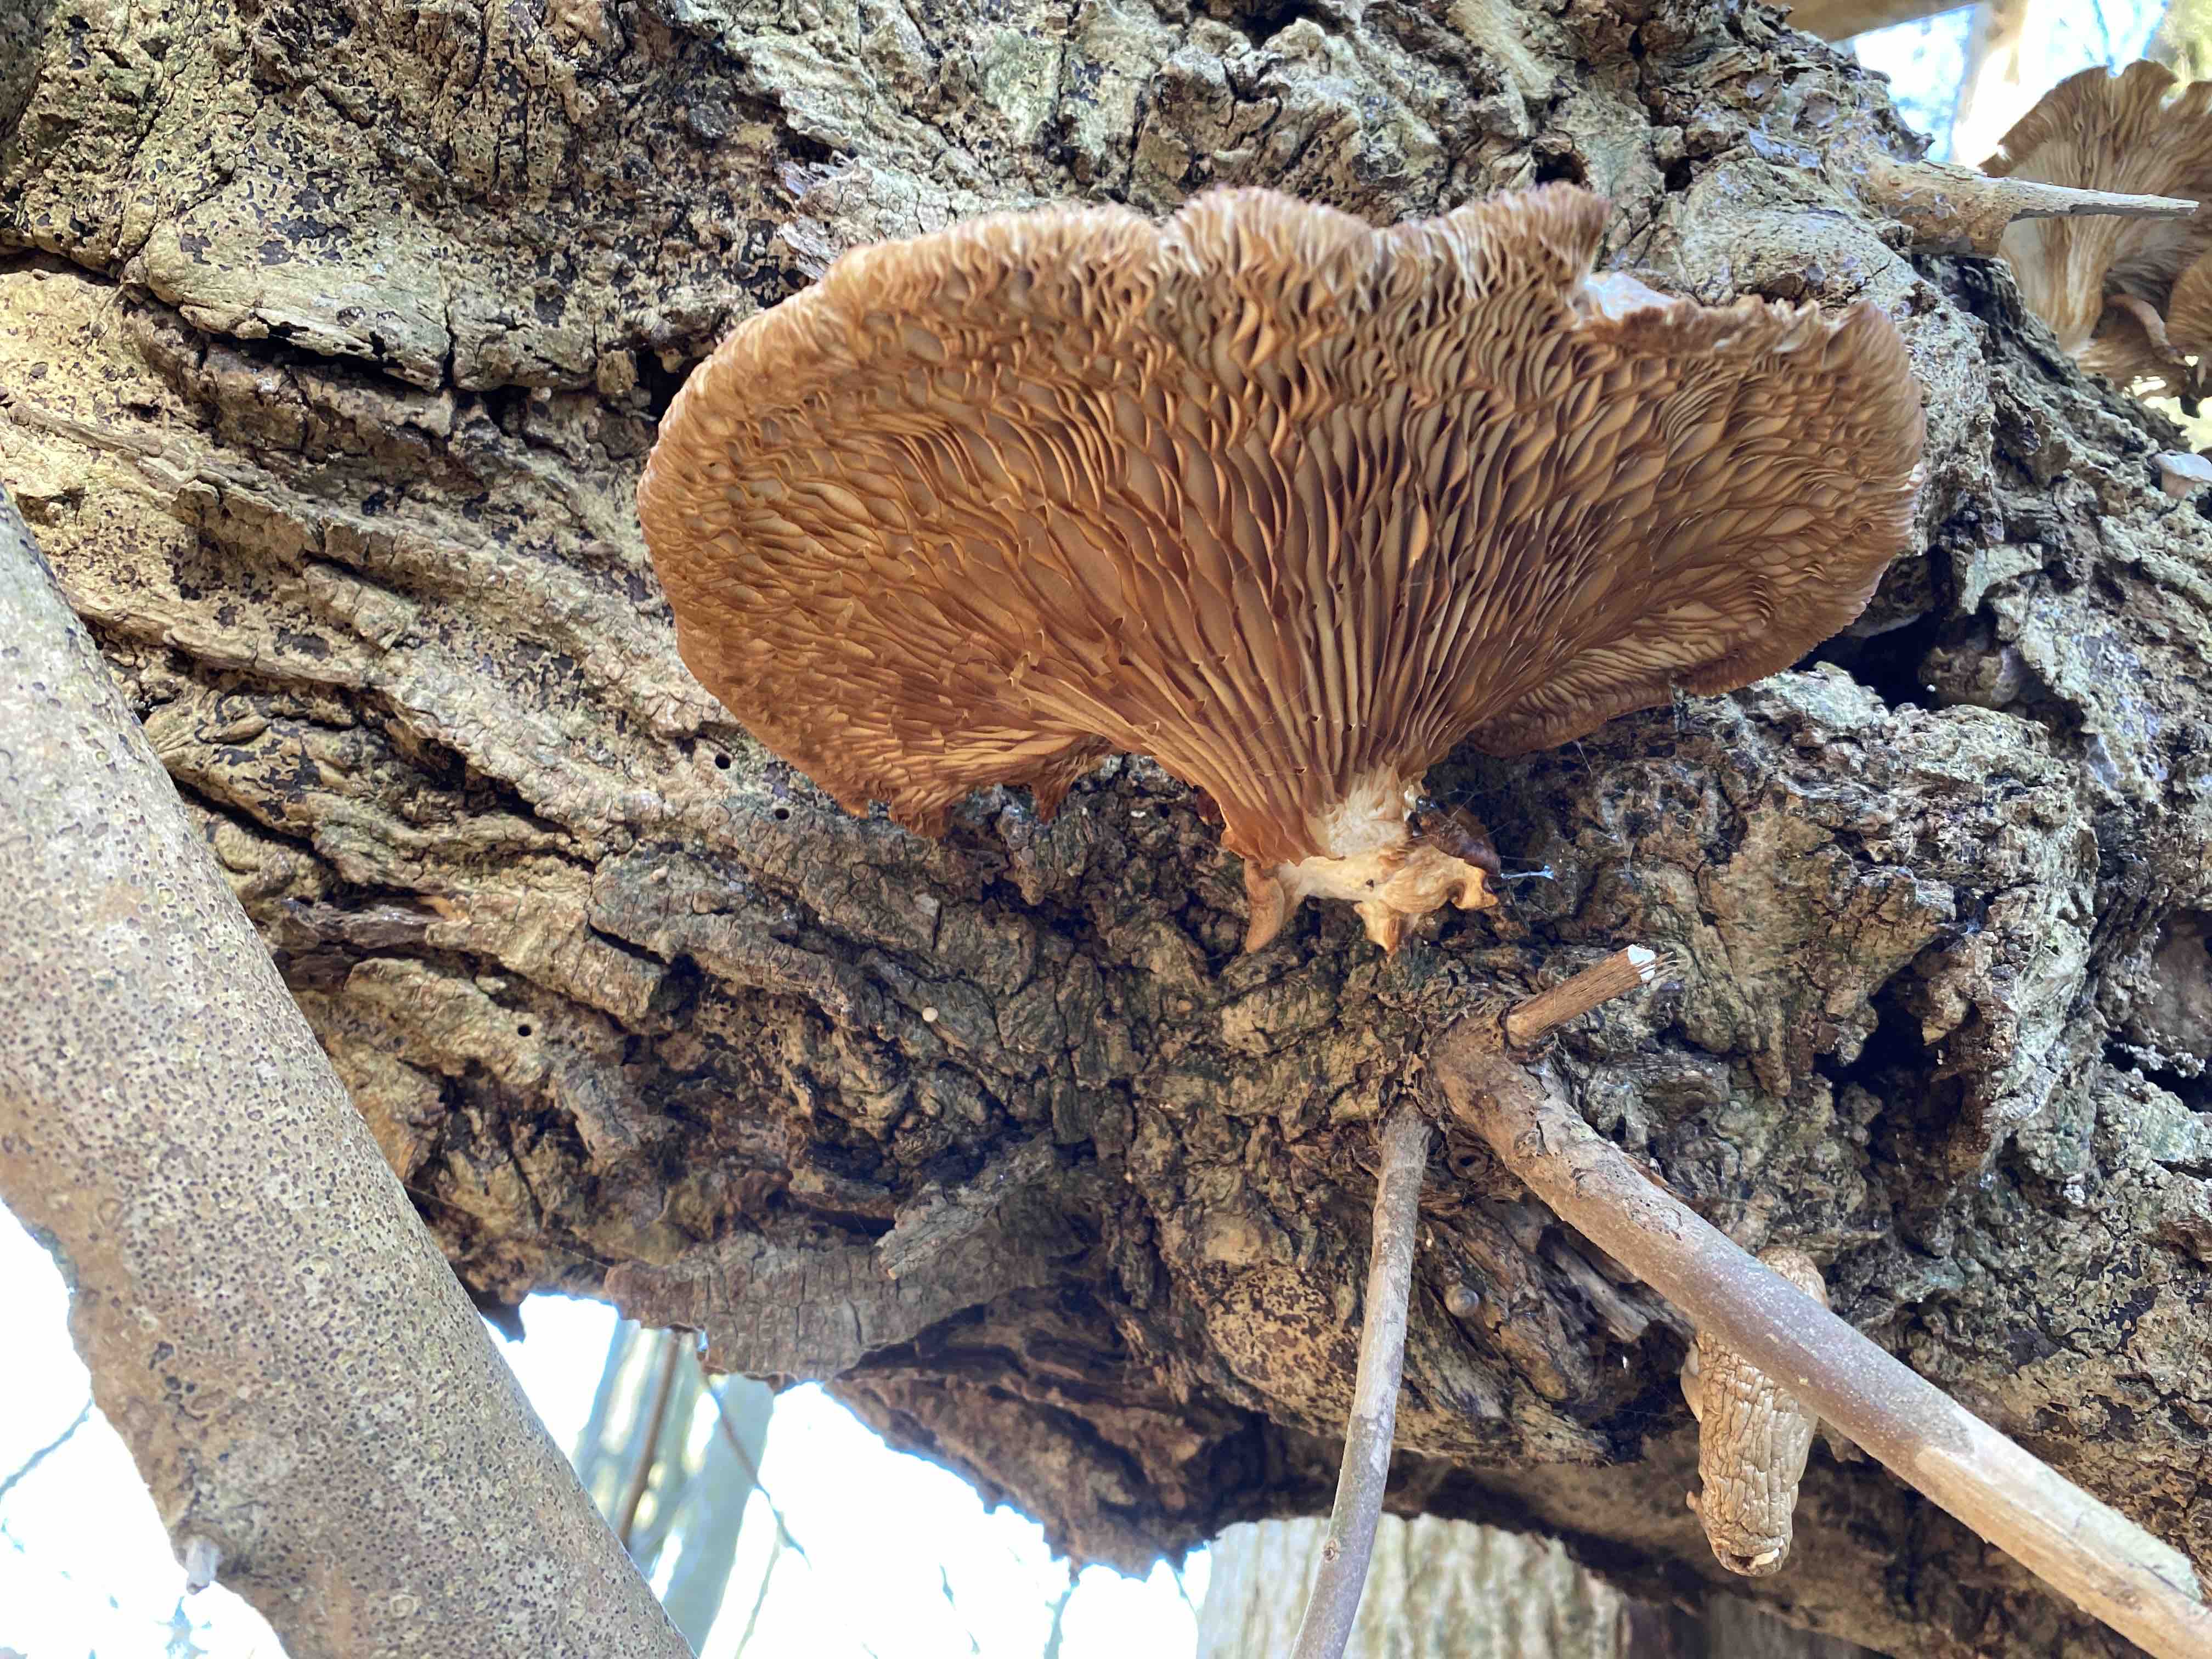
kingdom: Fungi
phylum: Basidiomycota
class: Agaricomycetes
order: Agaricales
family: Pleurotaceae
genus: Pleurotus
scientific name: Pleurotus ostreatus
